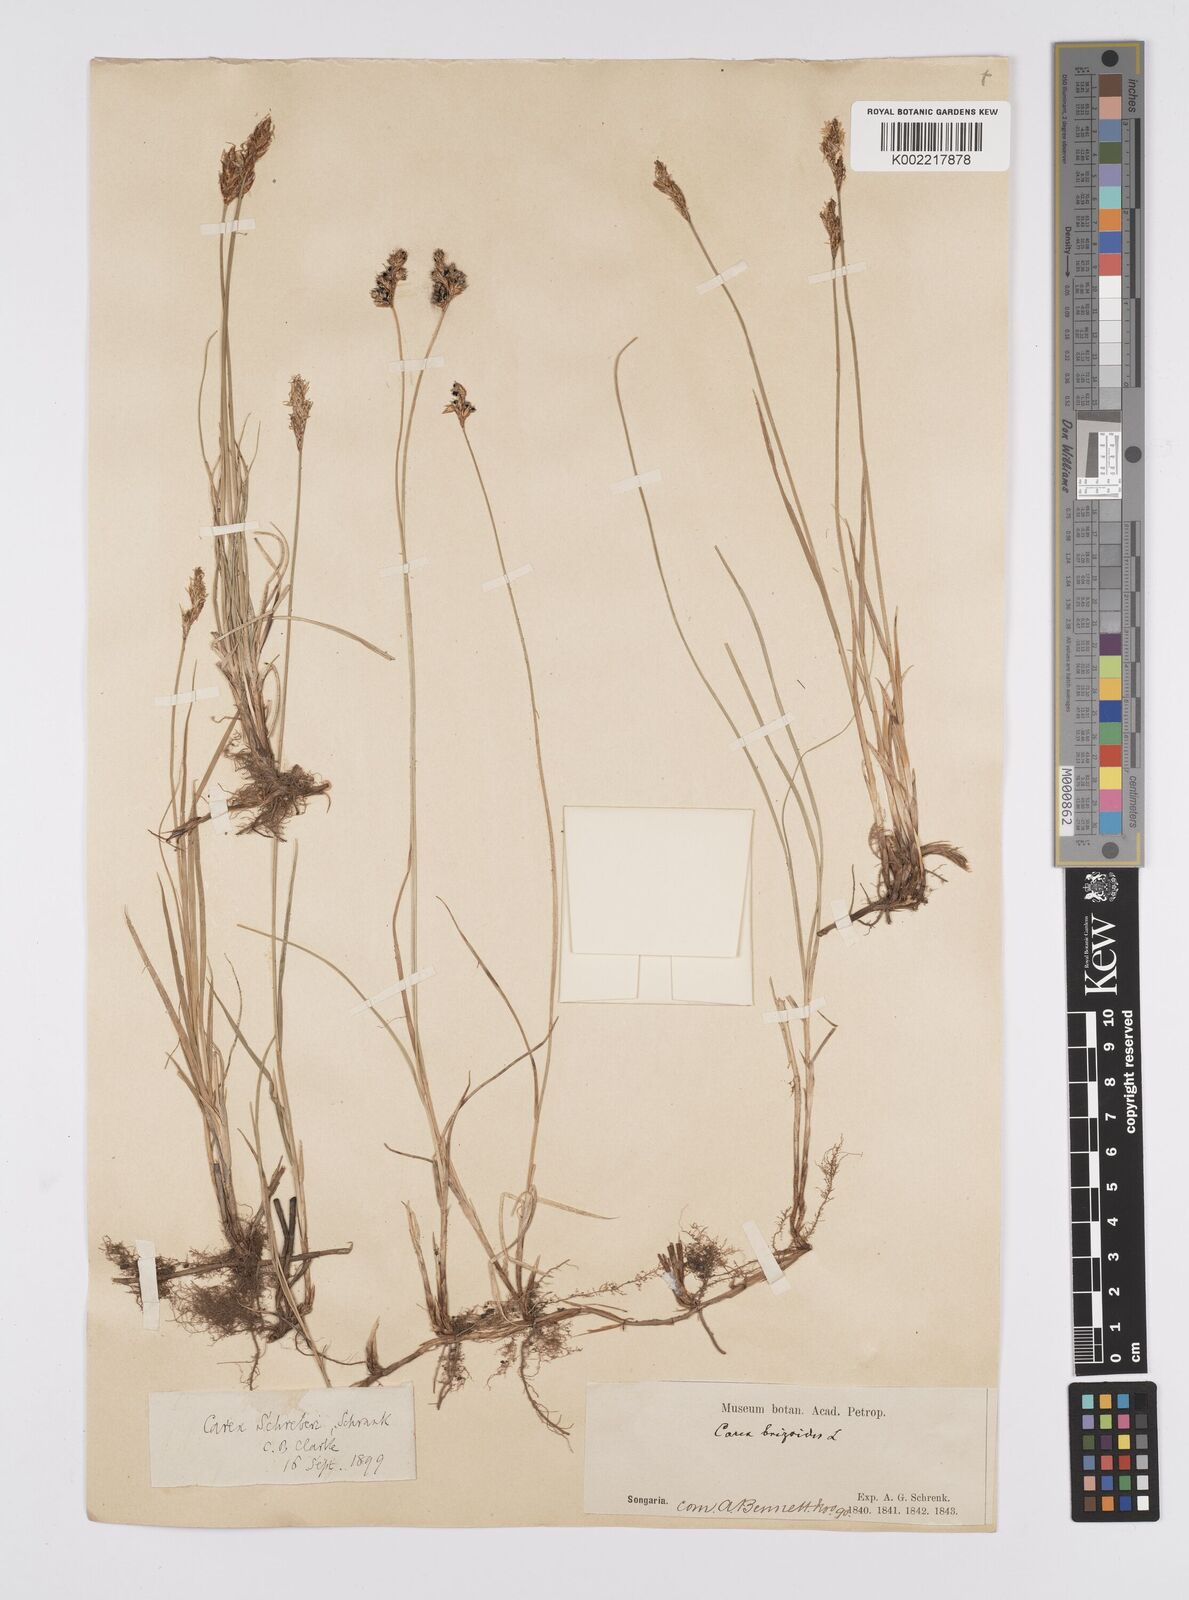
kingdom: Plantae
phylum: Tracheophyta
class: Liliopsida
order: Poales
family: Cyperaceae
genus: Carex
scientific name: Carex praecox
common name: Early sedge
